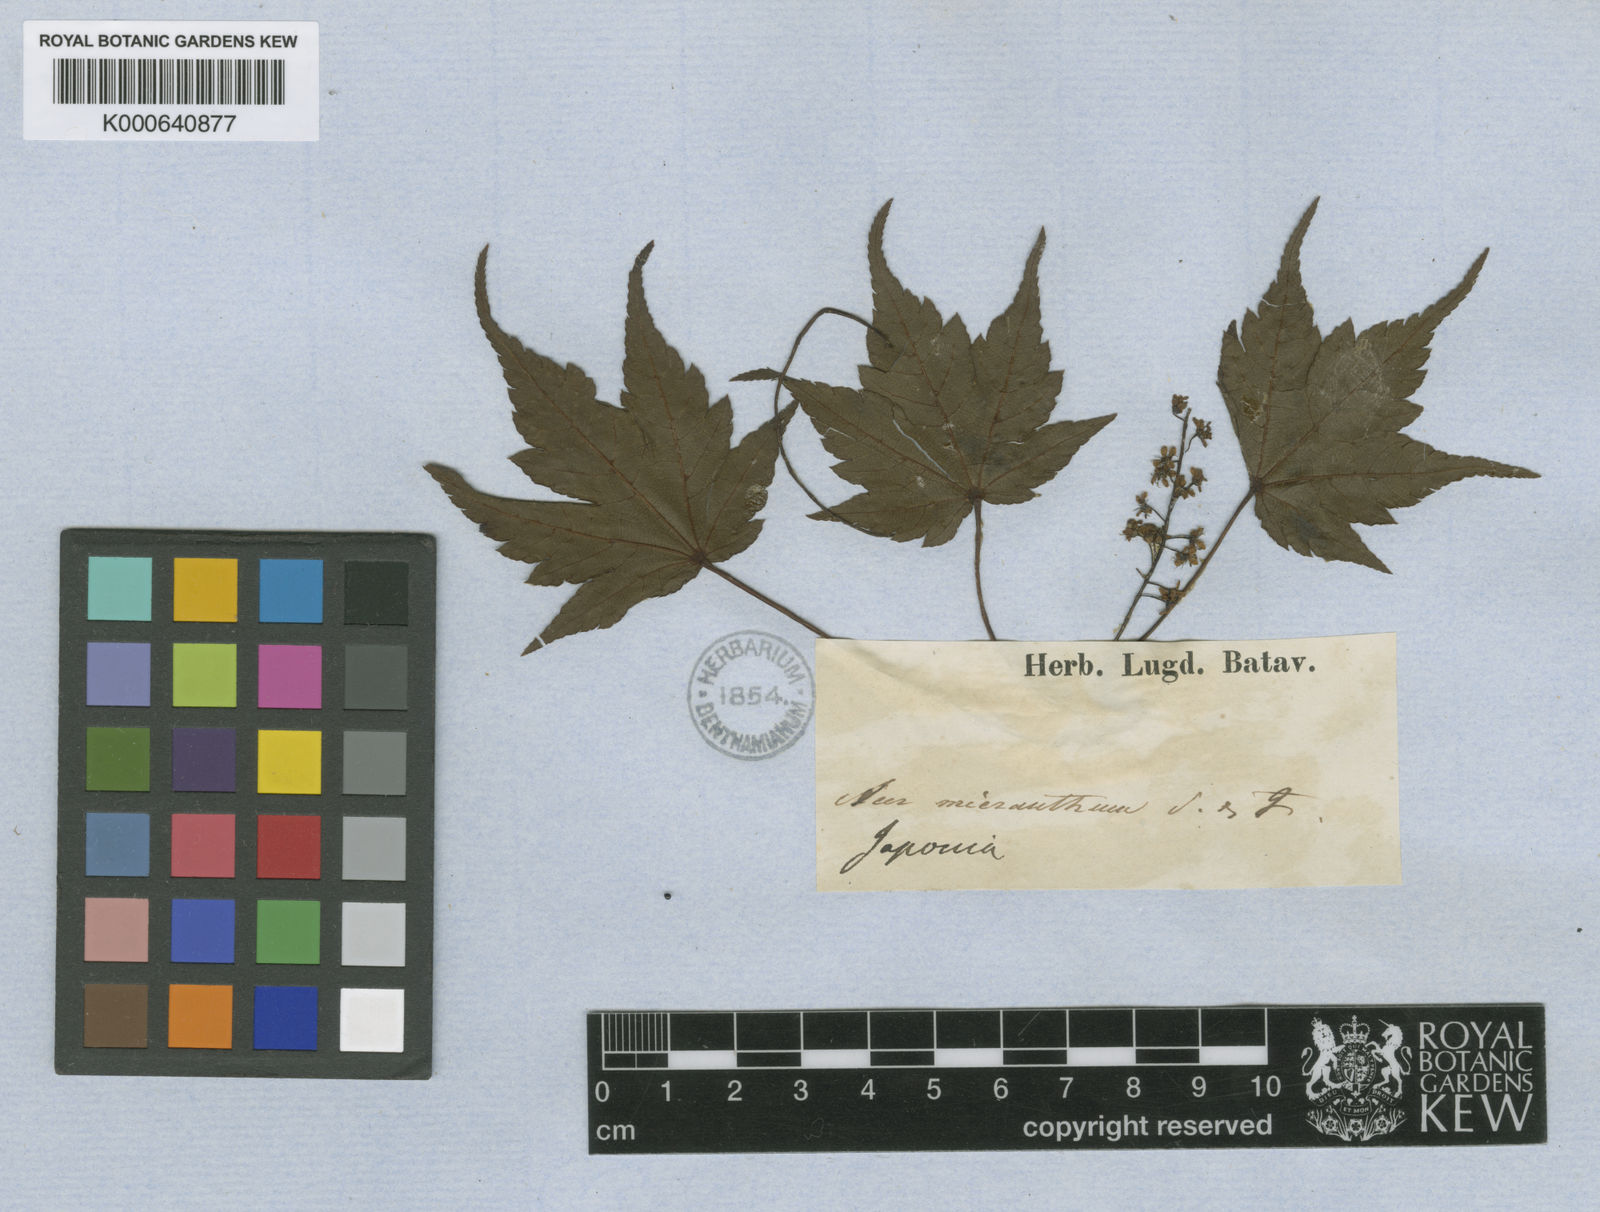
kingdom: Plantae
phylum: Tracheophyta
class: Magnoliopsida
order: Sapindales
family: Sapindaceae
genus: Acer
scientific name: Acer micranthum
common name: Komine maple
